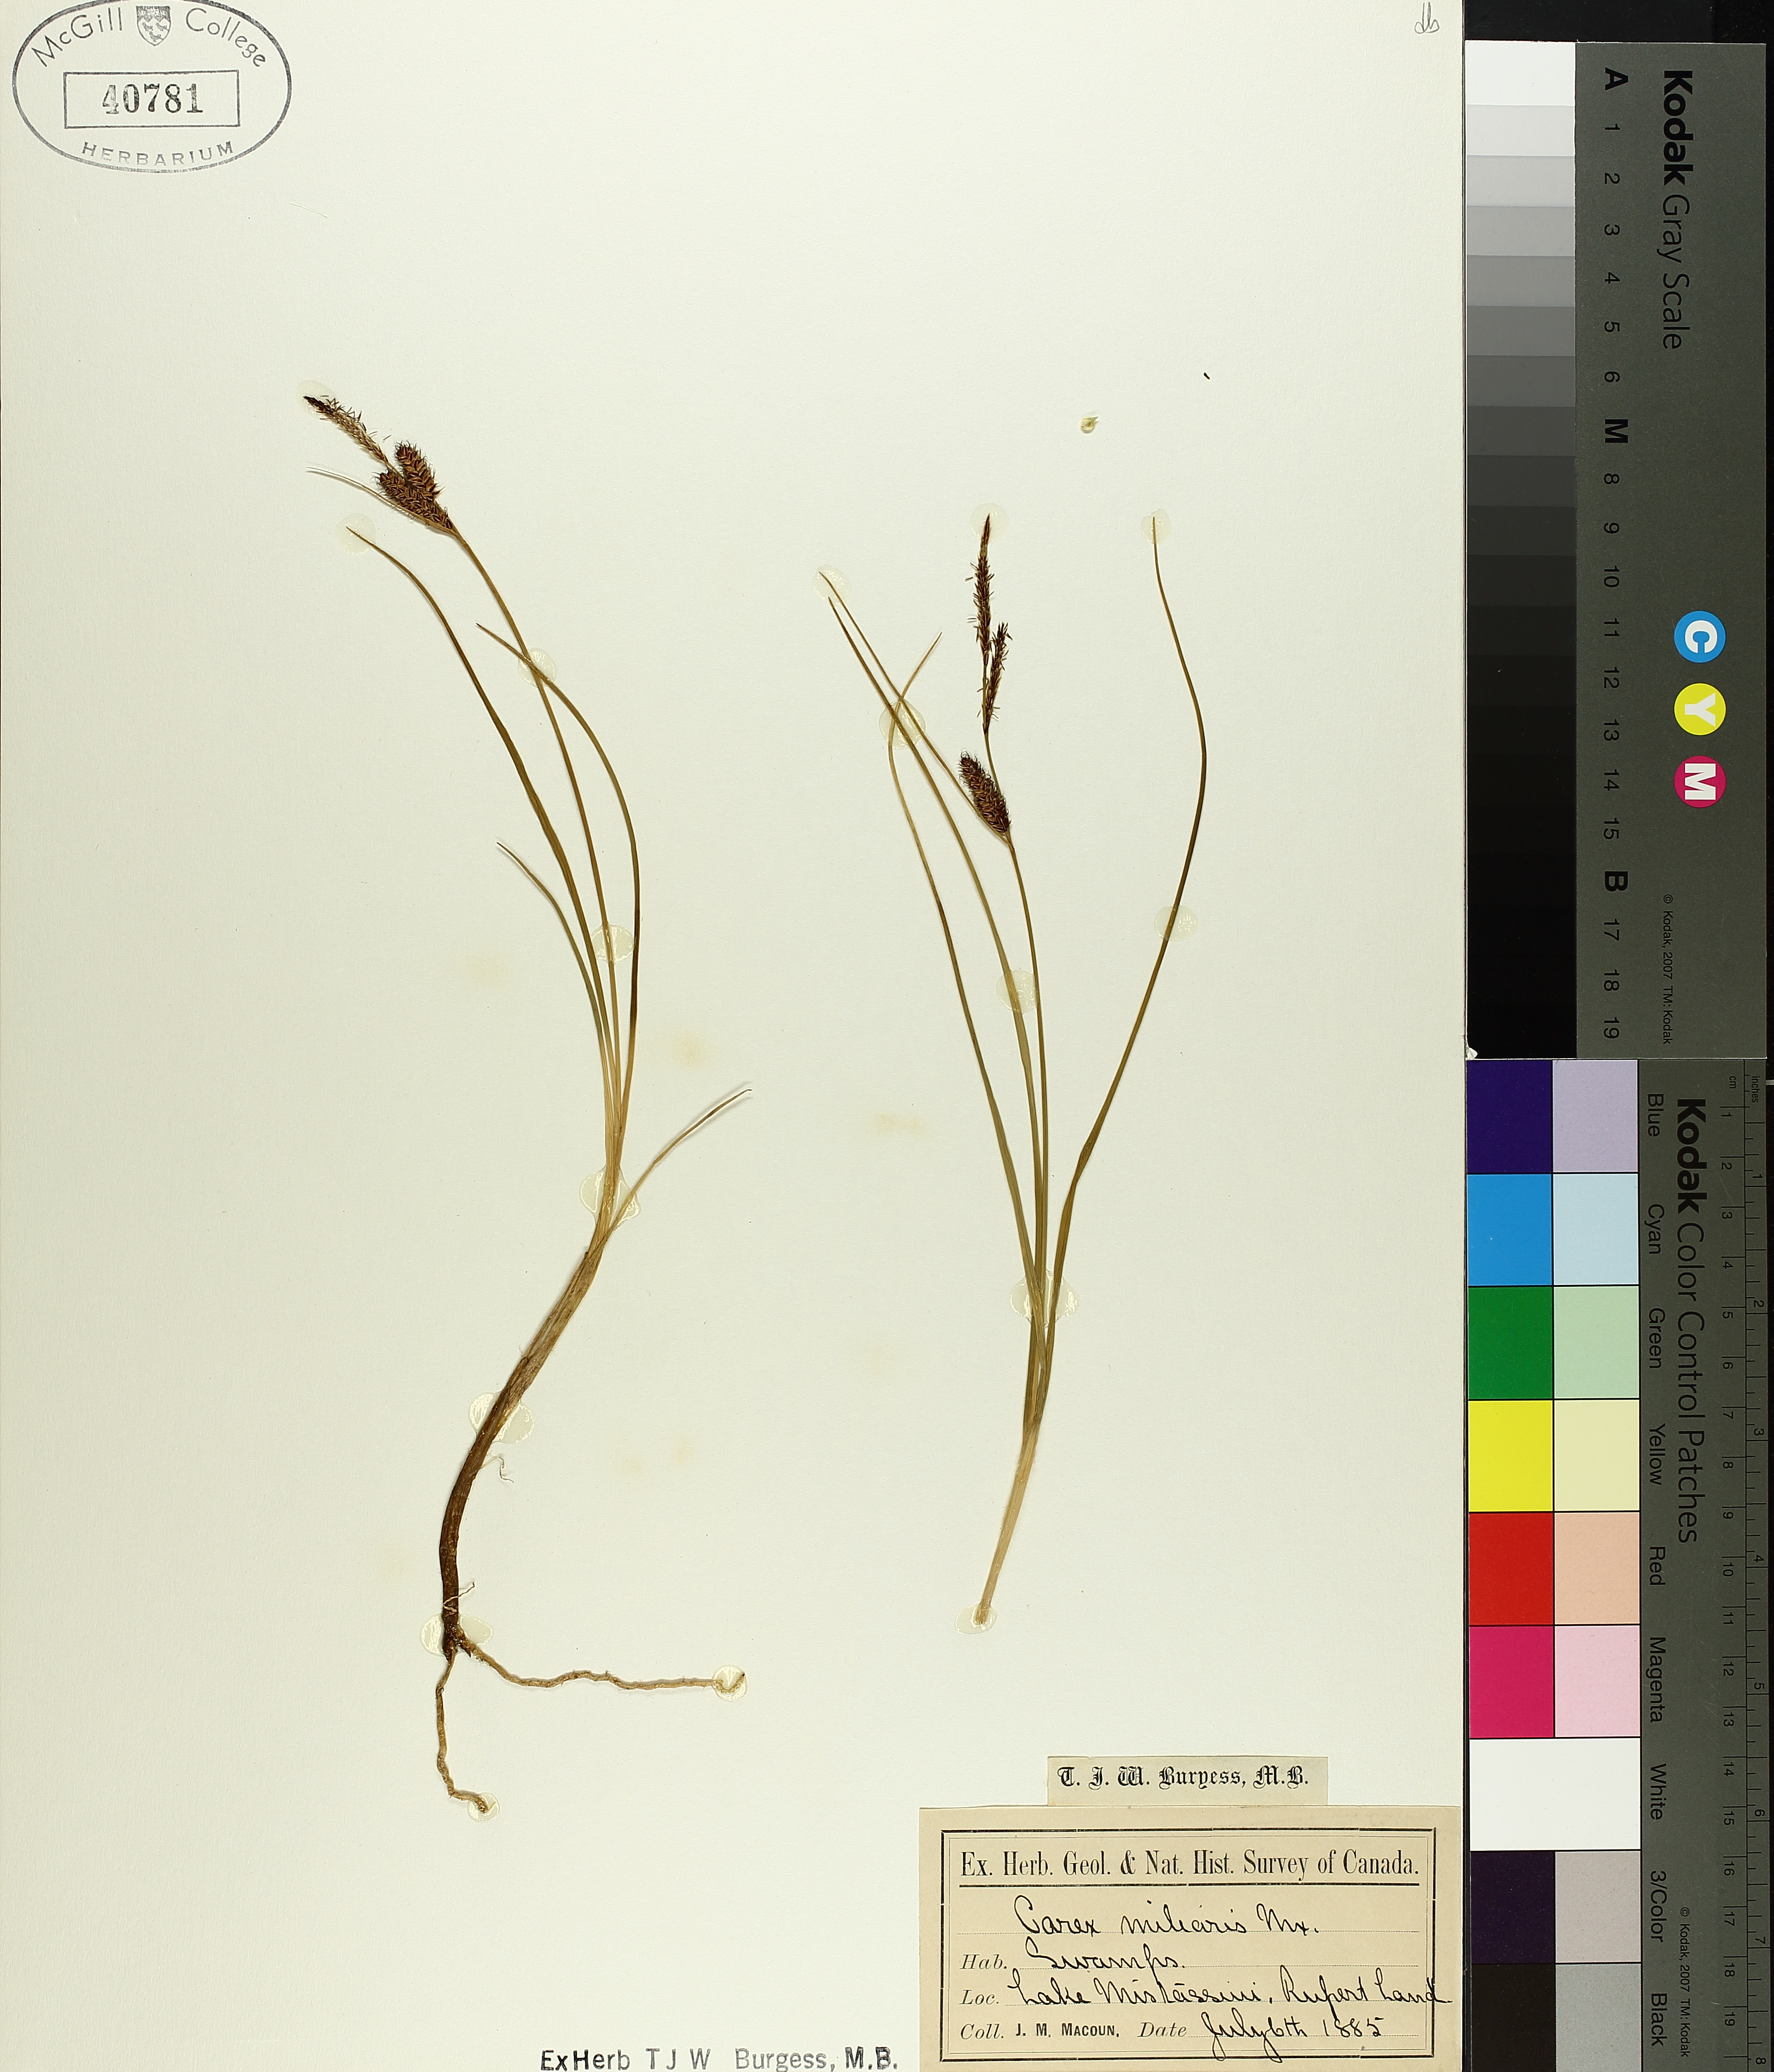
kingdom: Plantae
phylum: Tracheophyta
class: Liliopsida
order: Poales
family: Cyperaceae
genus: Carex
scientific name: Carex saxatilis
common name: Russet sedge
